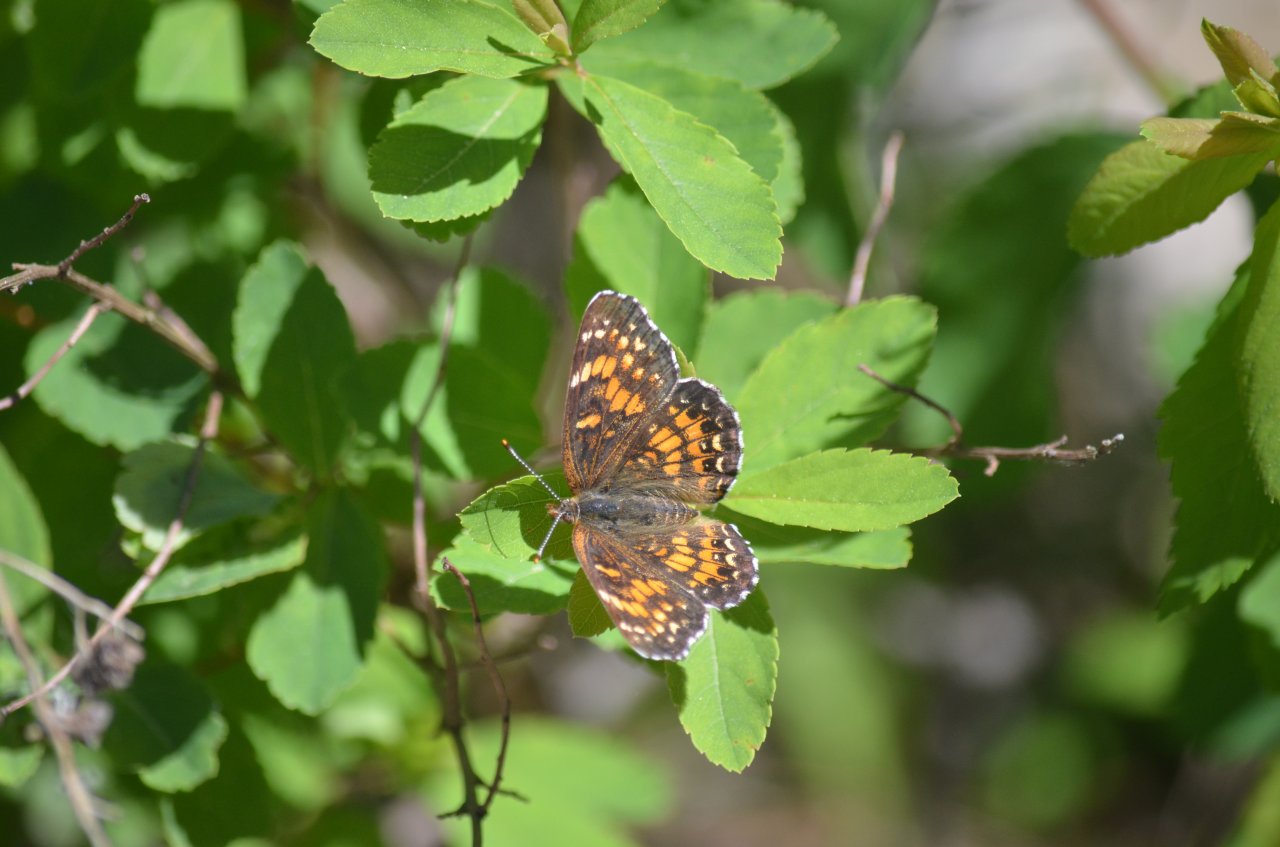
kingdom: Animalia
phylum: Arthropoda
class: Insecta
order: Lepidoptera
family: Nymphalidae
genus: Chlosyne
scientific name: Chlosyne harrisii
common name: Harris's Checkerspot
